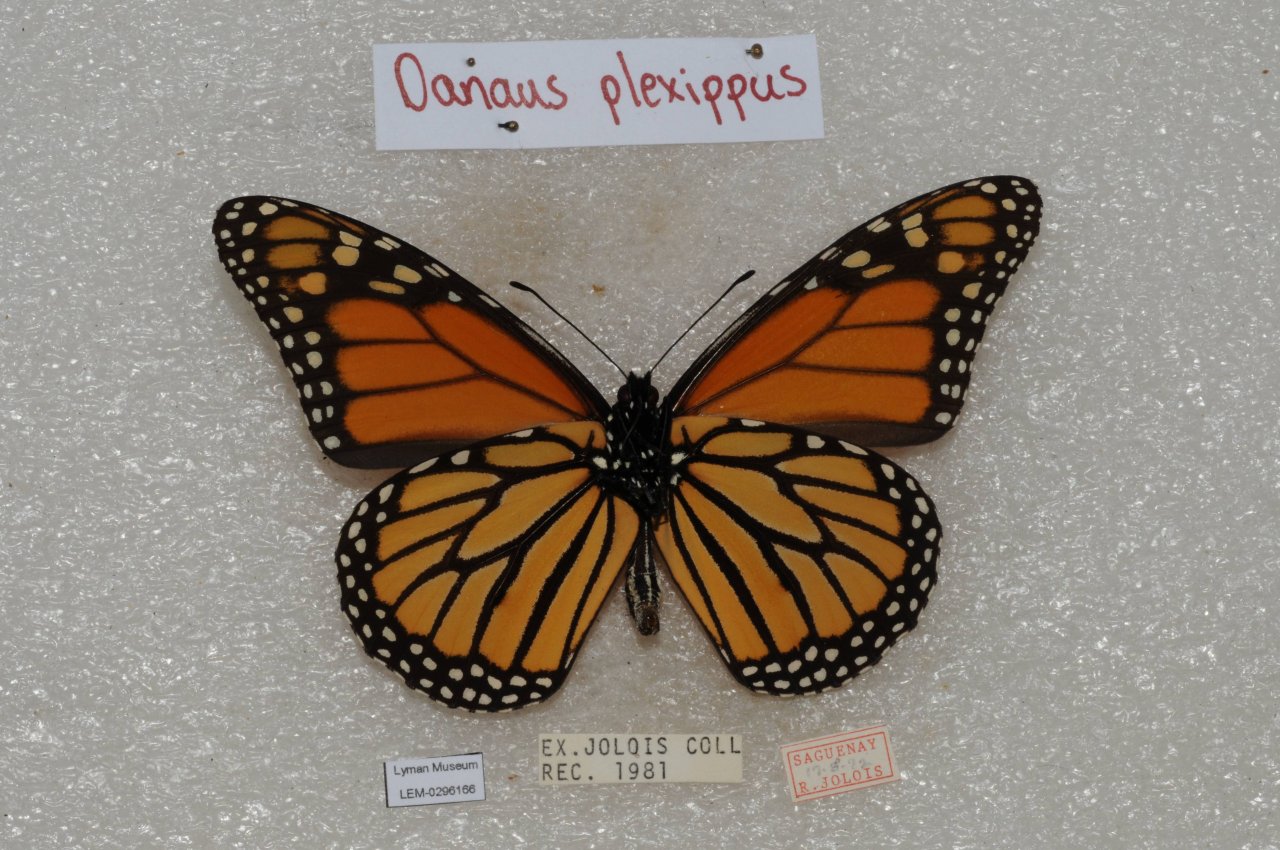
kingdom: Animalia
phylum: Arthropoda
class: Insecta
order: Lepidoptera
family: Nymphalidae
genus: Danaus
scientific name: Danaus plexippus
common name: Monarch
